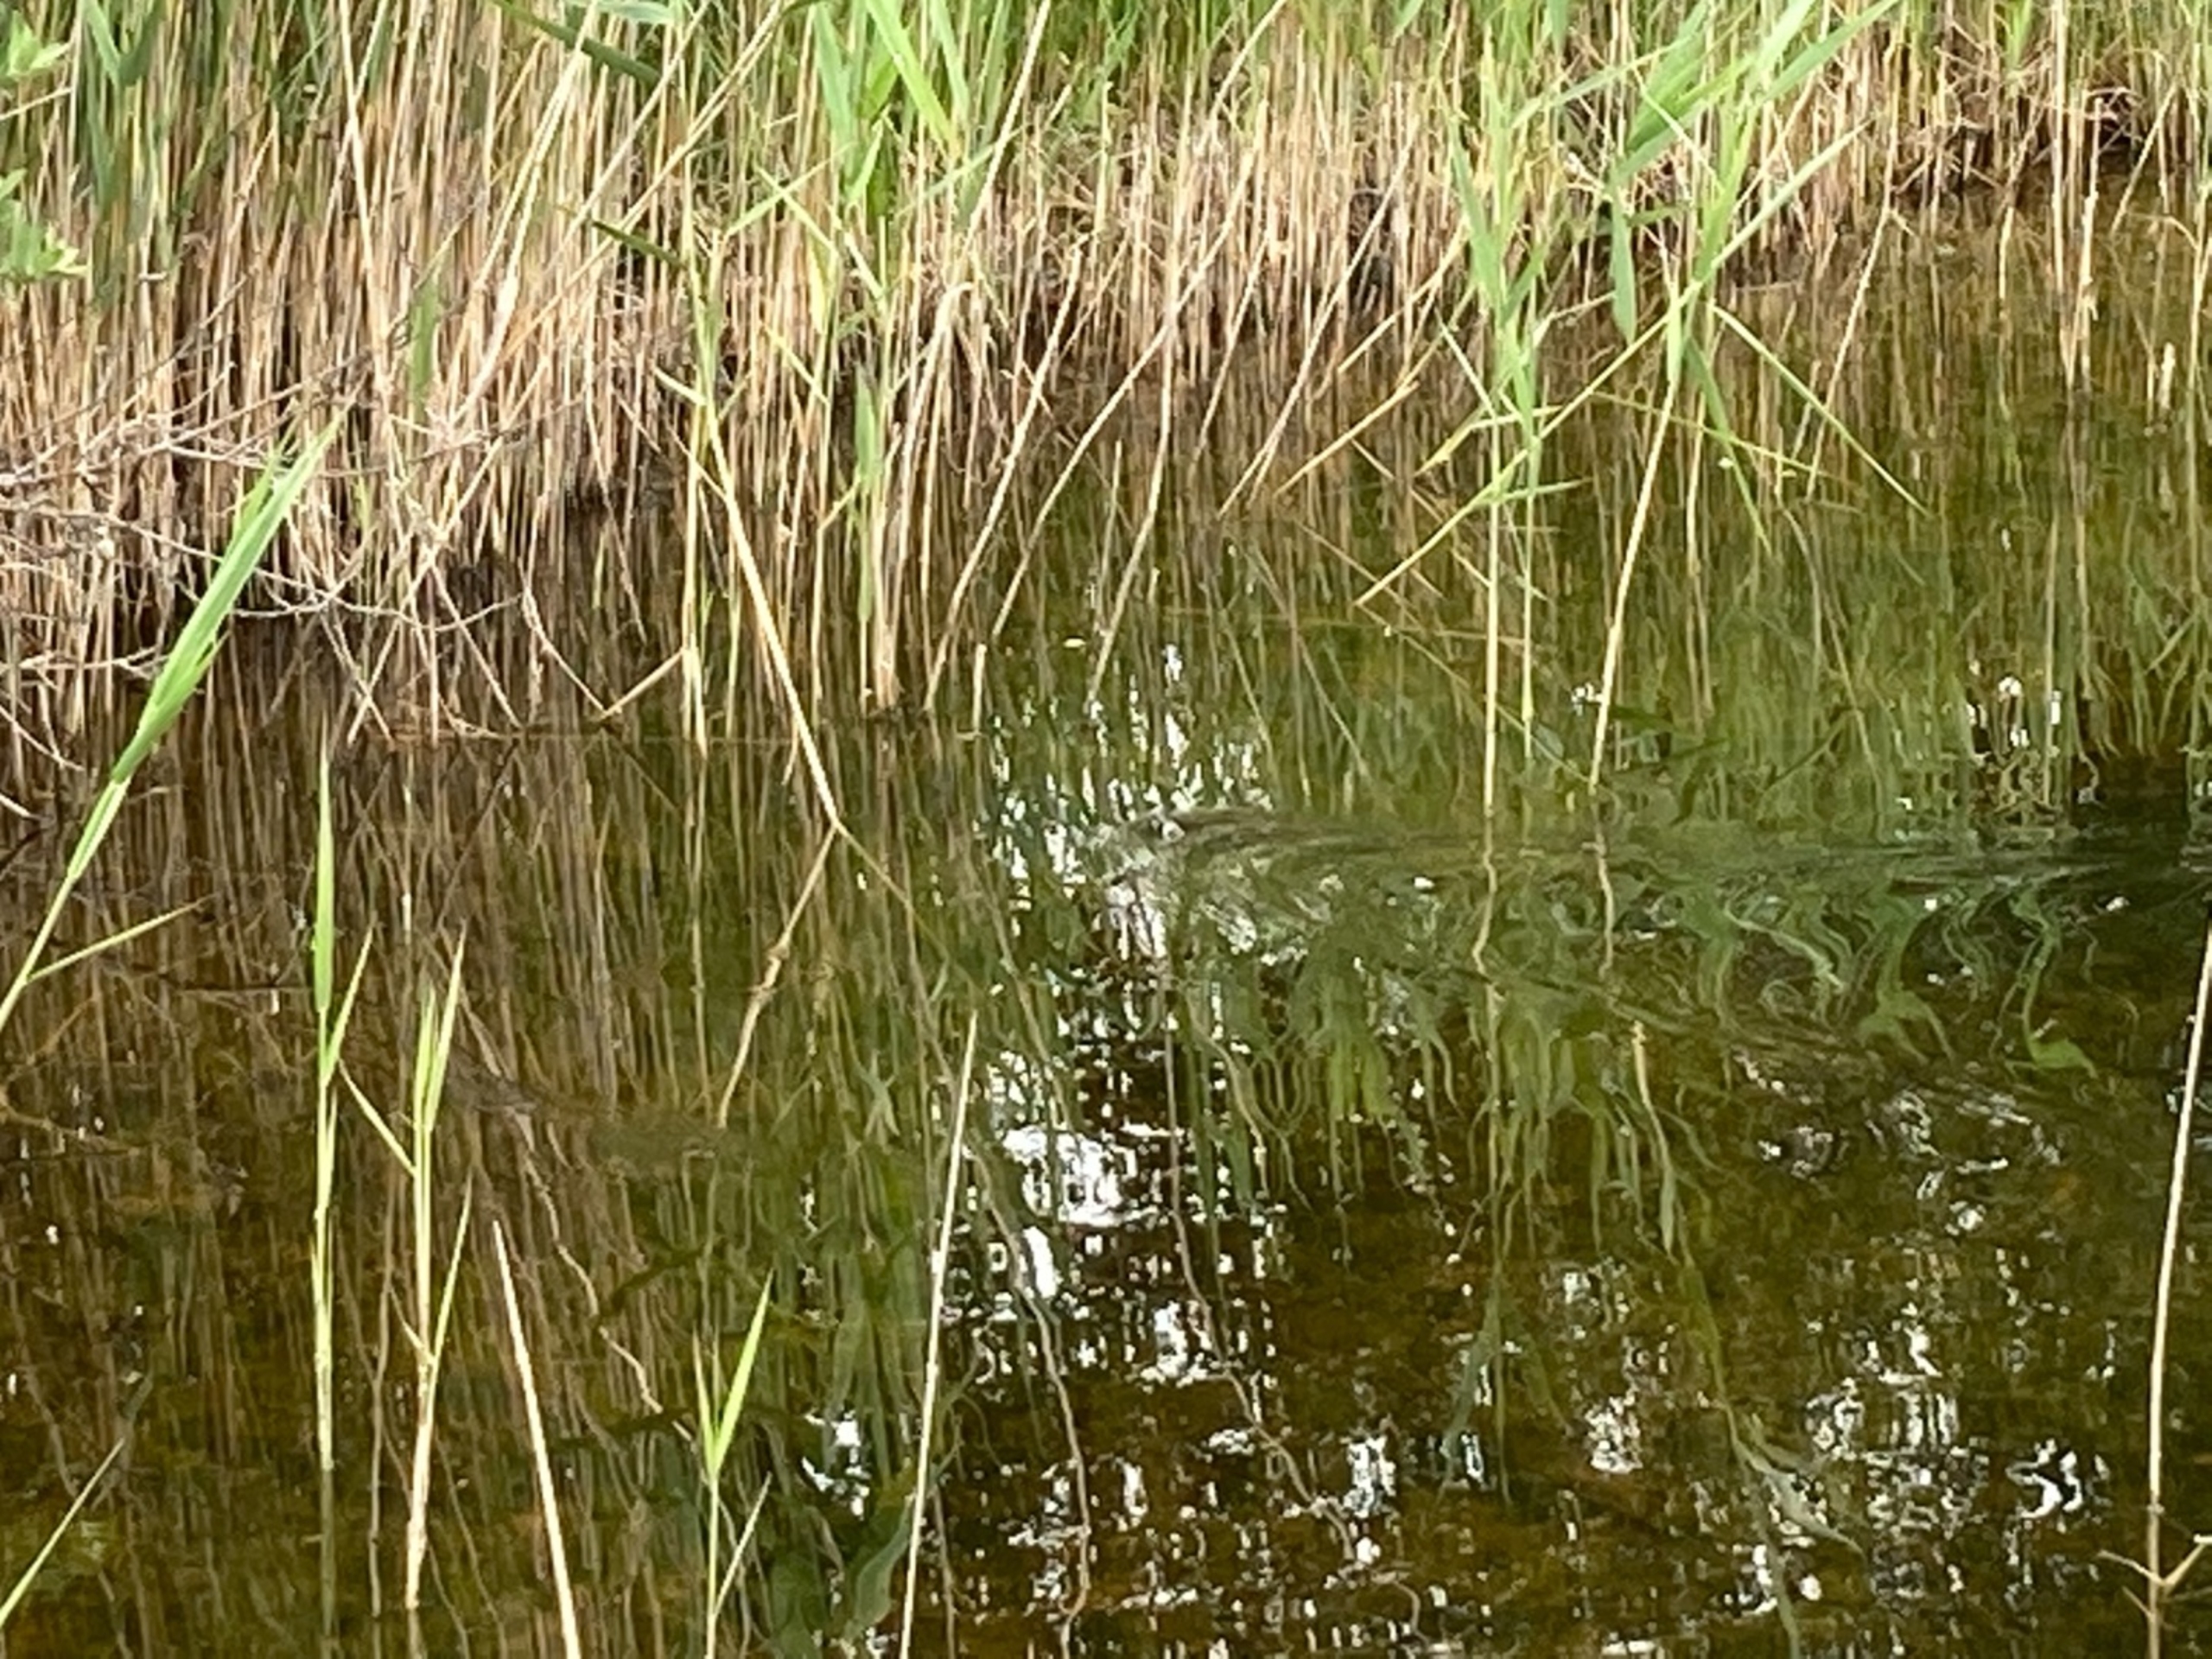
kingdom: Animalia
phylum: Chordata
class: Squamata
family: Colubridae
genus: Natrix
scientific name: Natrix natrix
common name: Snog
